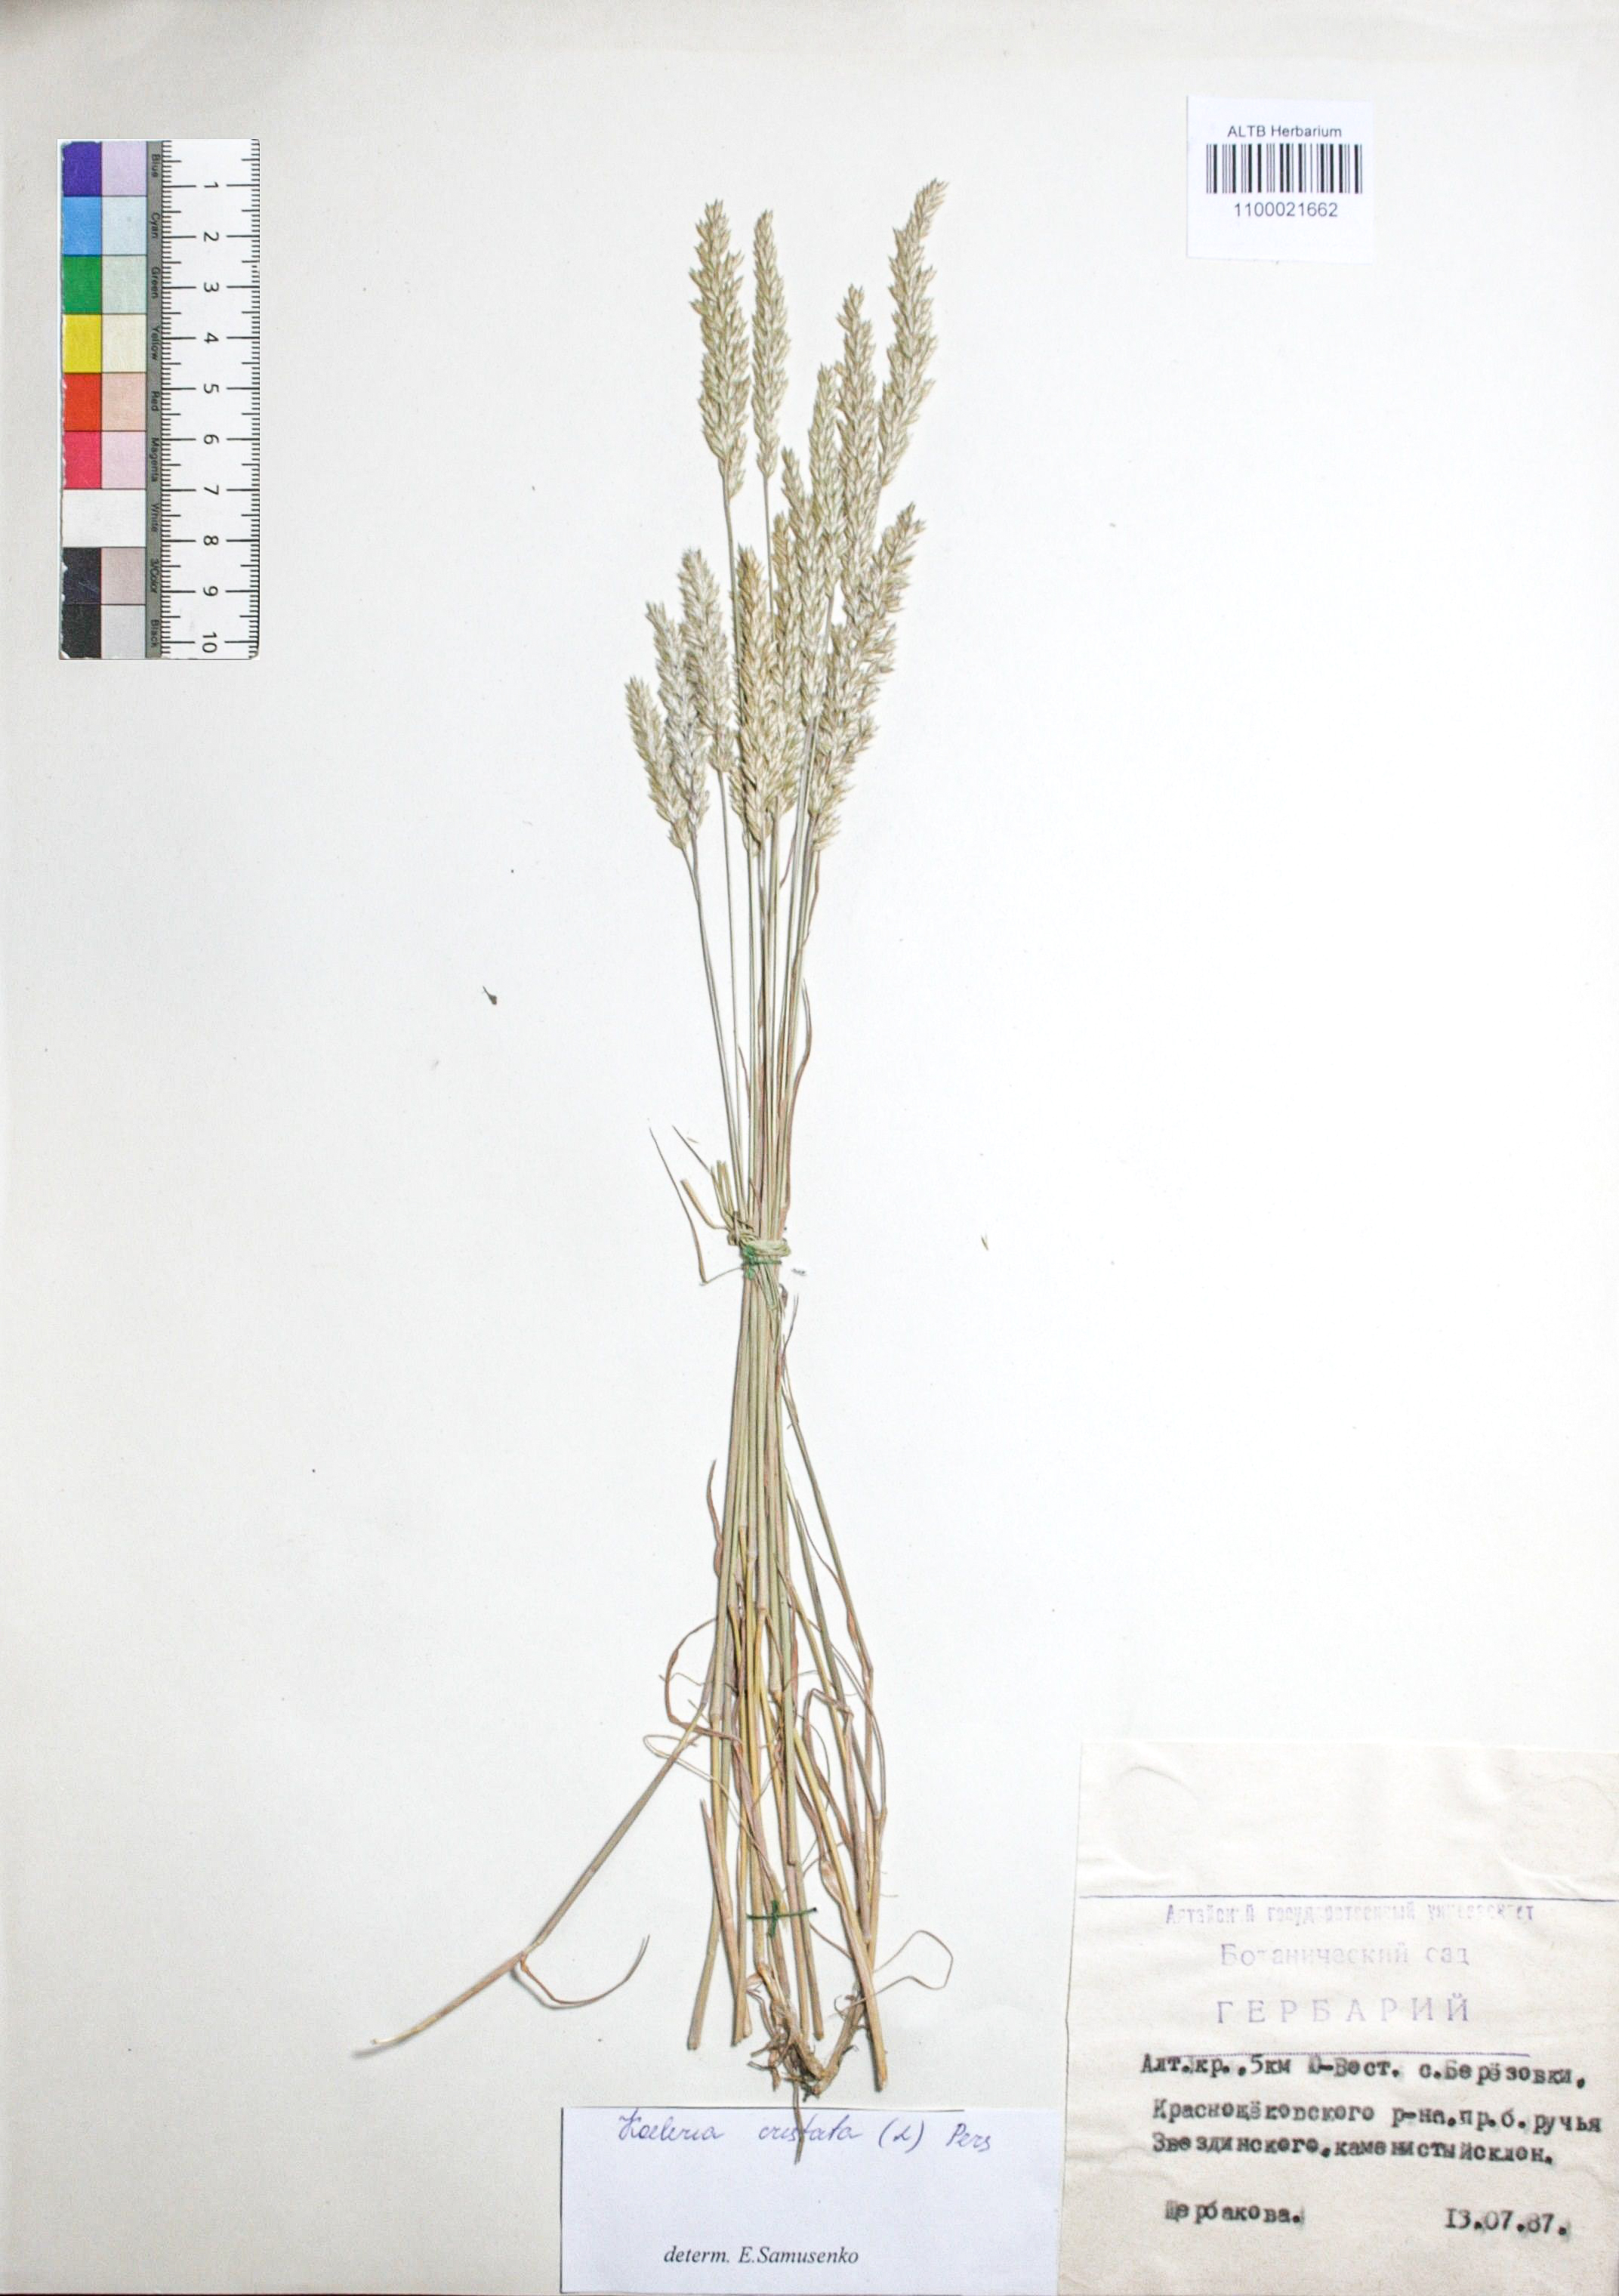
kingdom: Plantae
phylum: Tracheophyta
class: Liliopsida
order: Poales
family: Poaceae
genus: Koeleria
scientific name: Koeleria pyramidata
